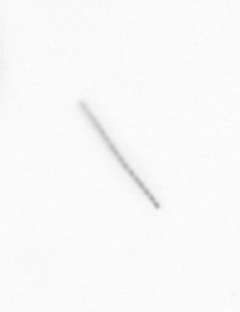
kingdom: Chromista
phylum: Ochrophyta
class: Bacillariophyceae
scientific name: Bacillariophyceae
